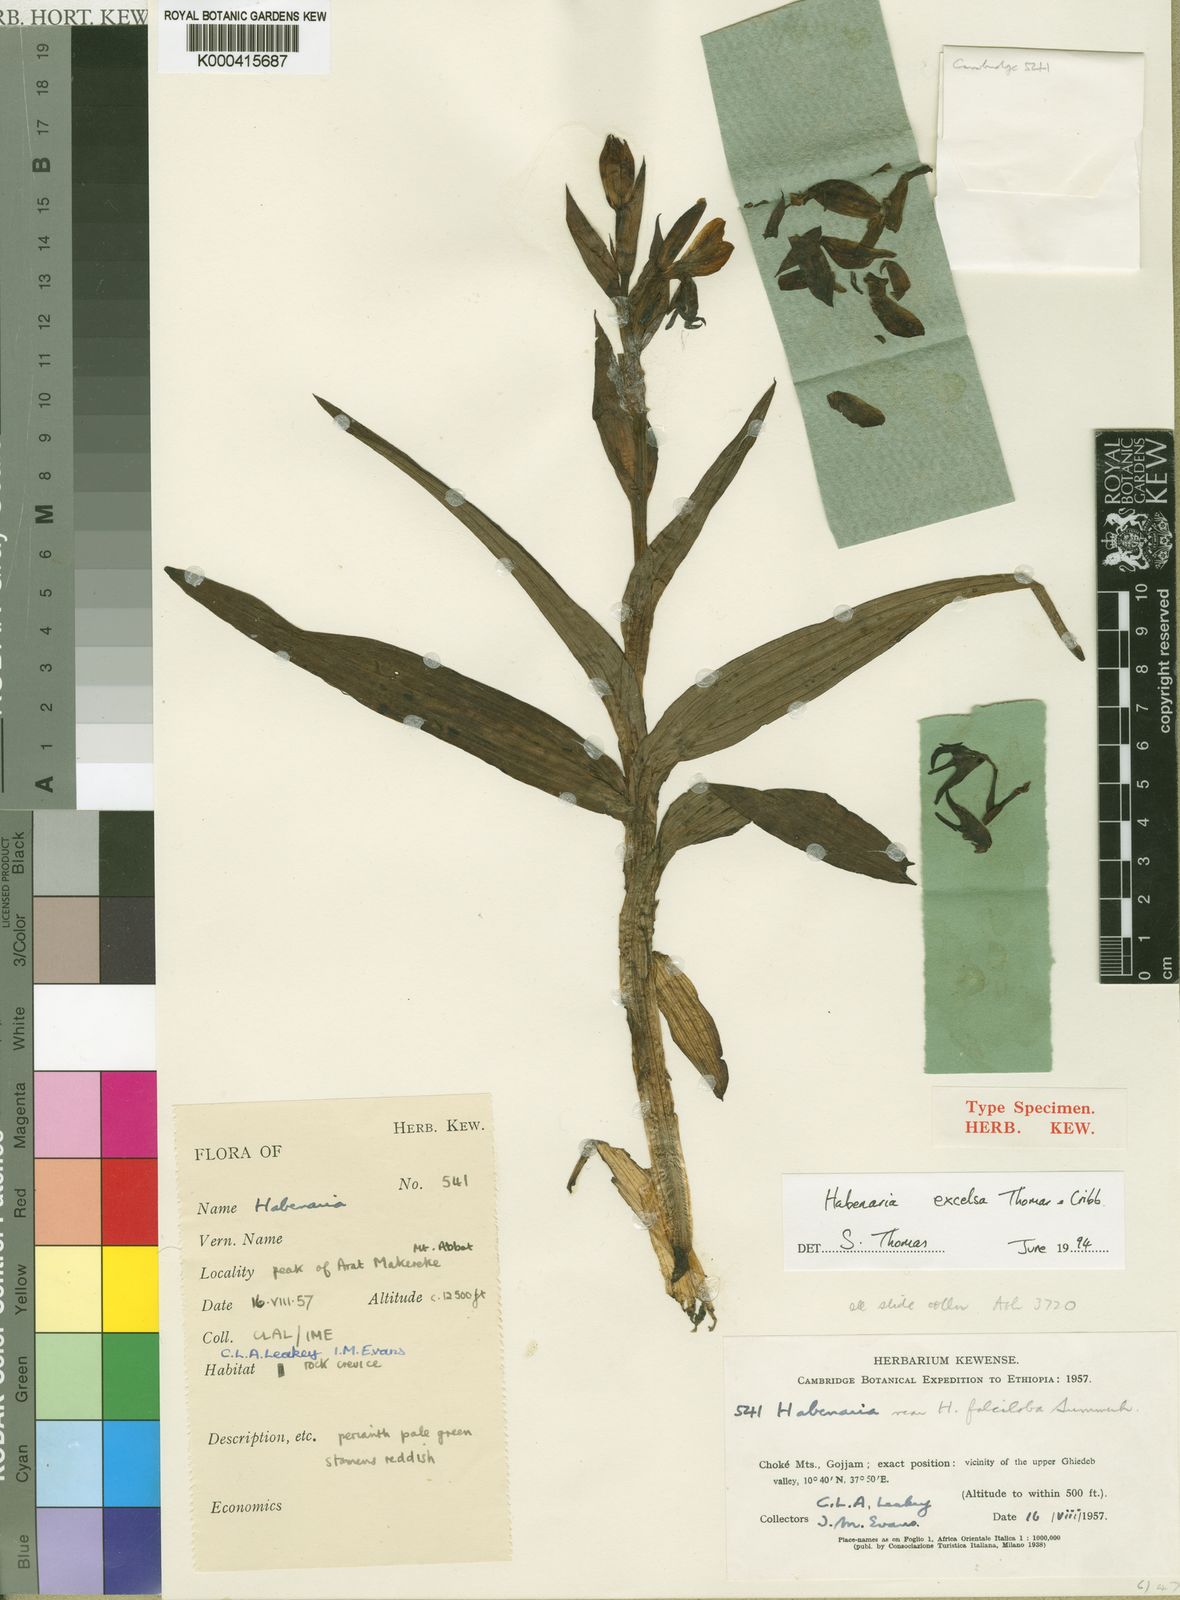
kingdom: Plantae
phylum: Tracheophyta
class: Liliopsida
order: Asparagales
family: Orchidaceae
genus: Habenaria
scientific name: Habenaria excelsa
